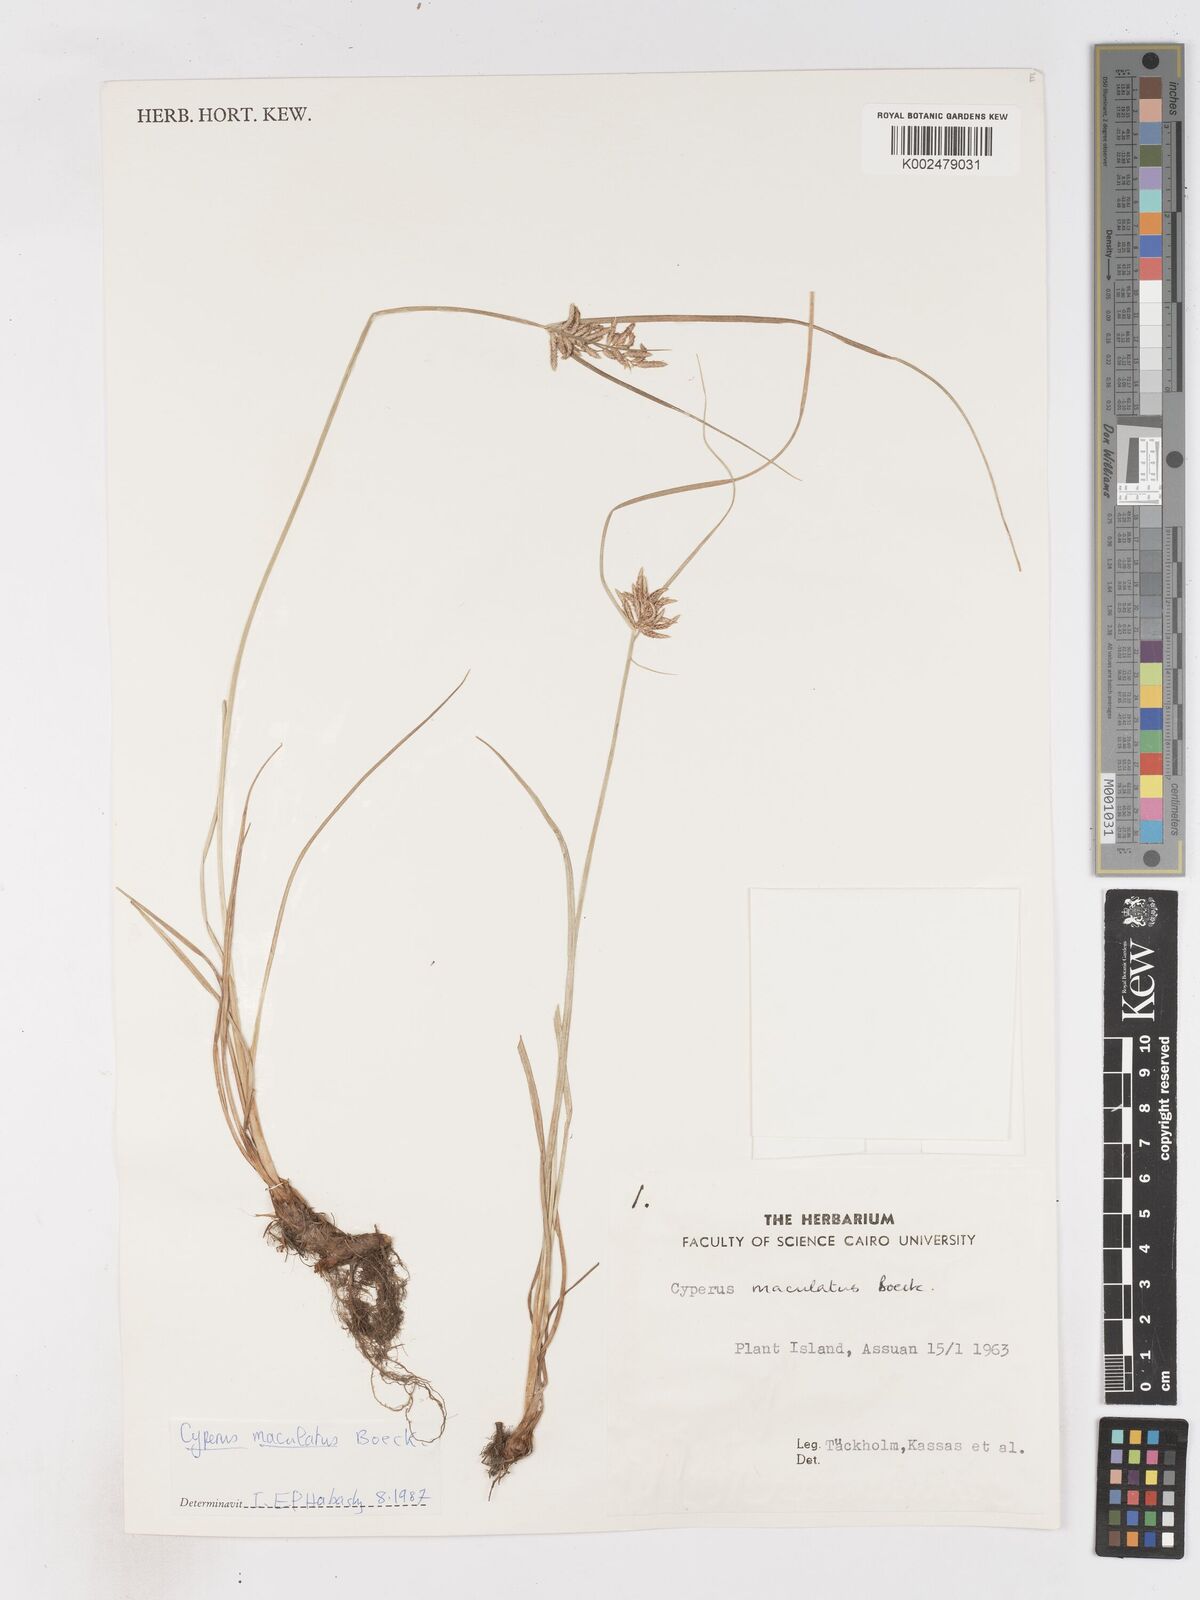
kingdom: Plantae
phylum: Tracheophyta
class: Liliopsida
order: Poales
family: Cyperaceae
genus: Cyperus
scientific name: Cyperus maculatus
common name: Maculated sedge
